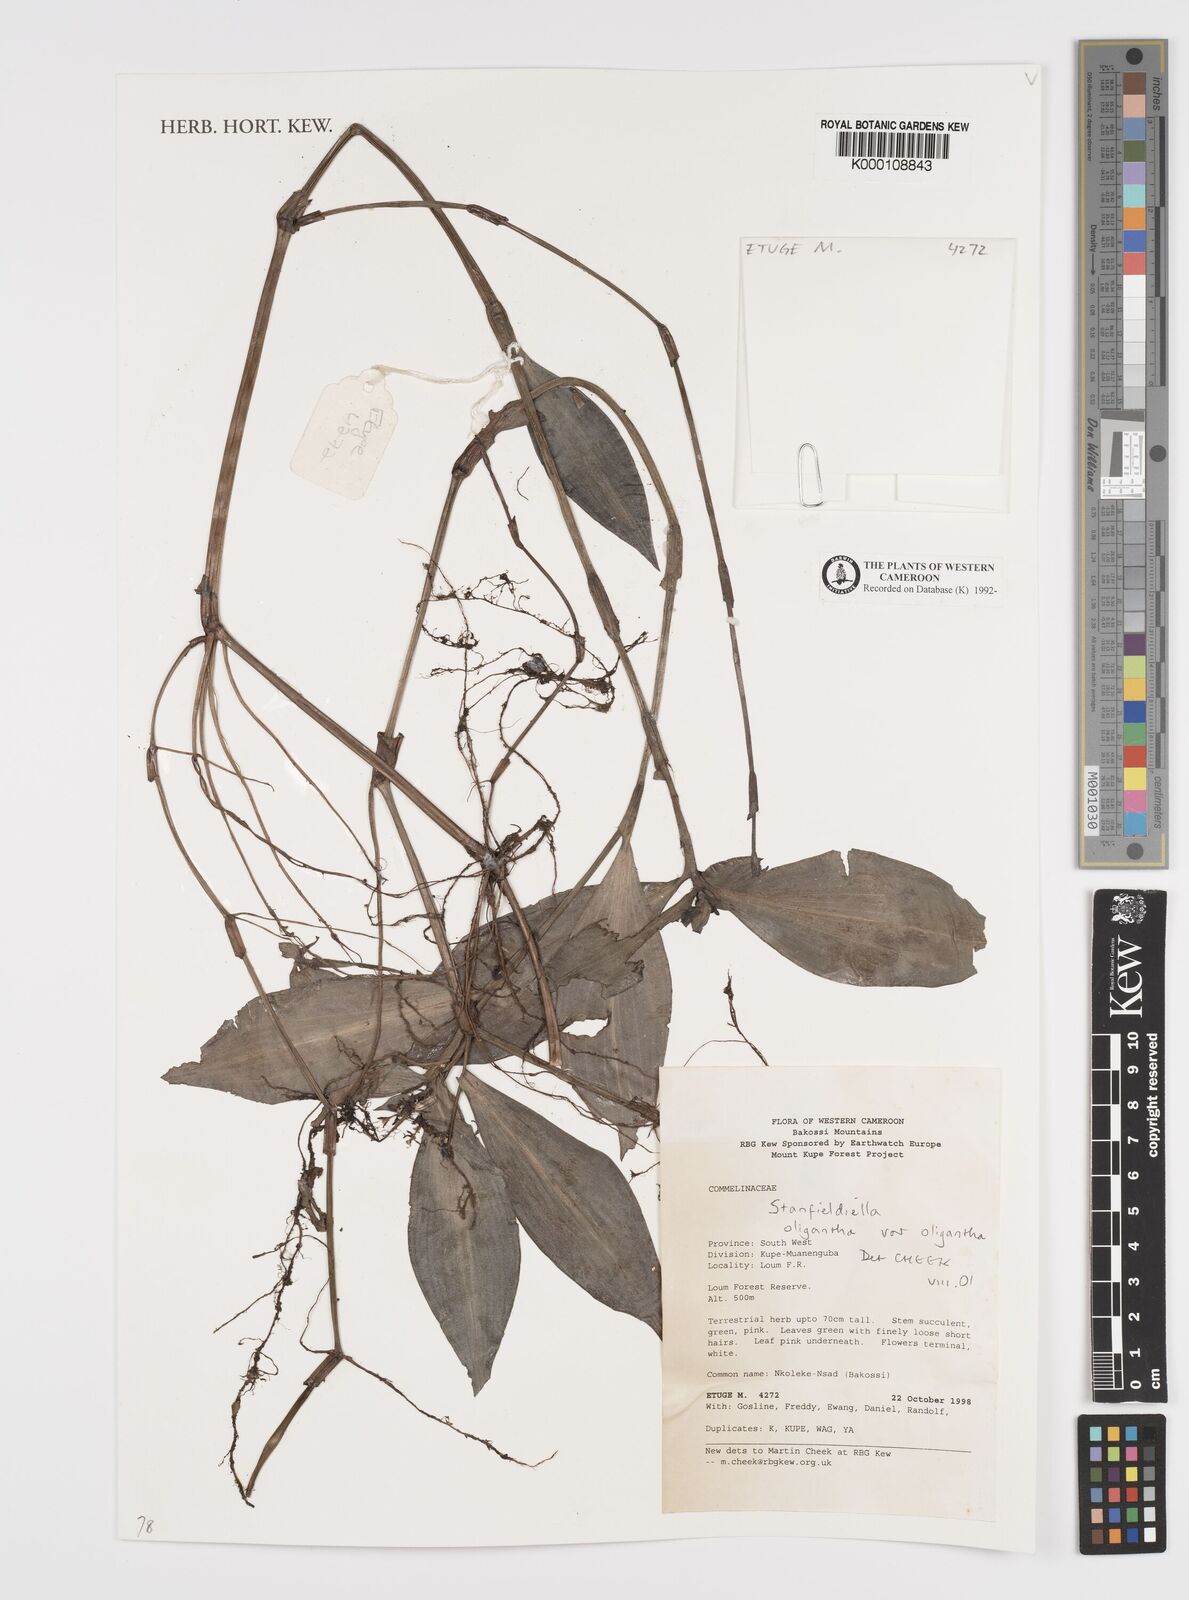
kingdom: Plantae
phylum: Tracheophyta
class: Liliopsida
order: Commelinales
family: Commelinaceae
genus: Stanfieldiella
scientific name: Stanfieldiella oligantha
